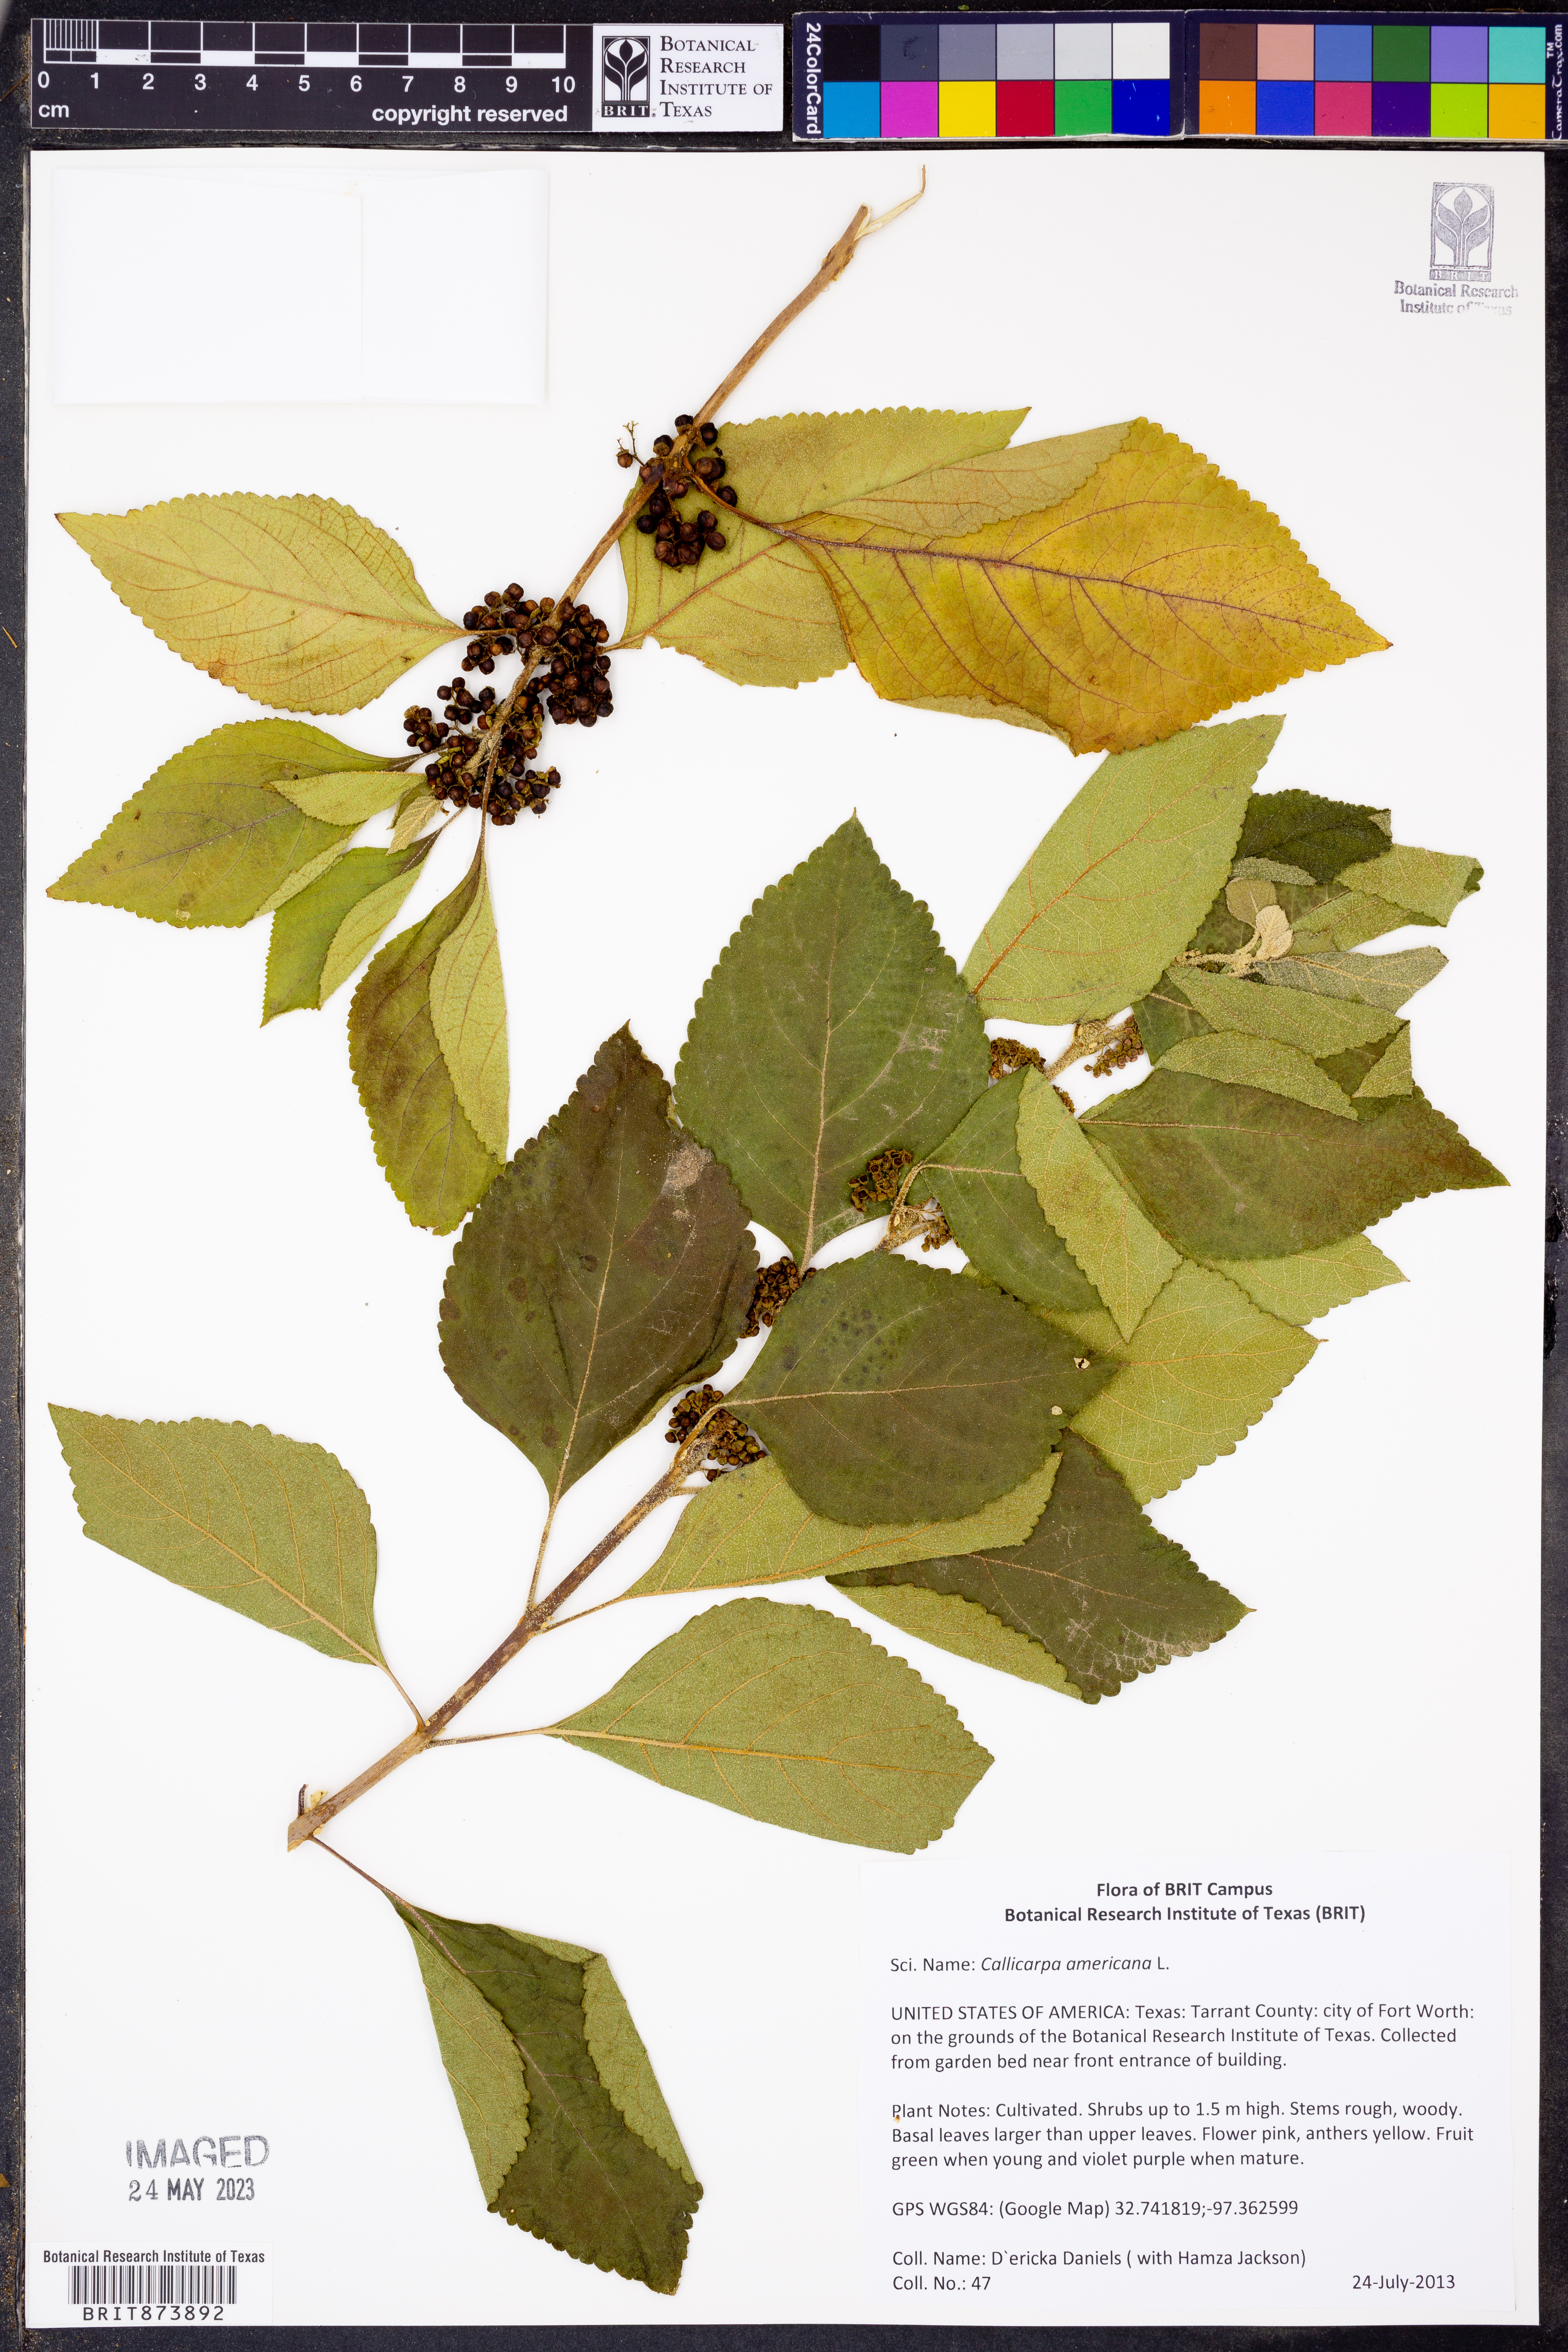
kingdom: Plantae
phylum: Tracheophyta
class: Magnoliopsida
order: Lamiales
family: Lamiaceae
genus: Callicarpa
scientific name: Callicarpa americana
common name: American beautyberry
